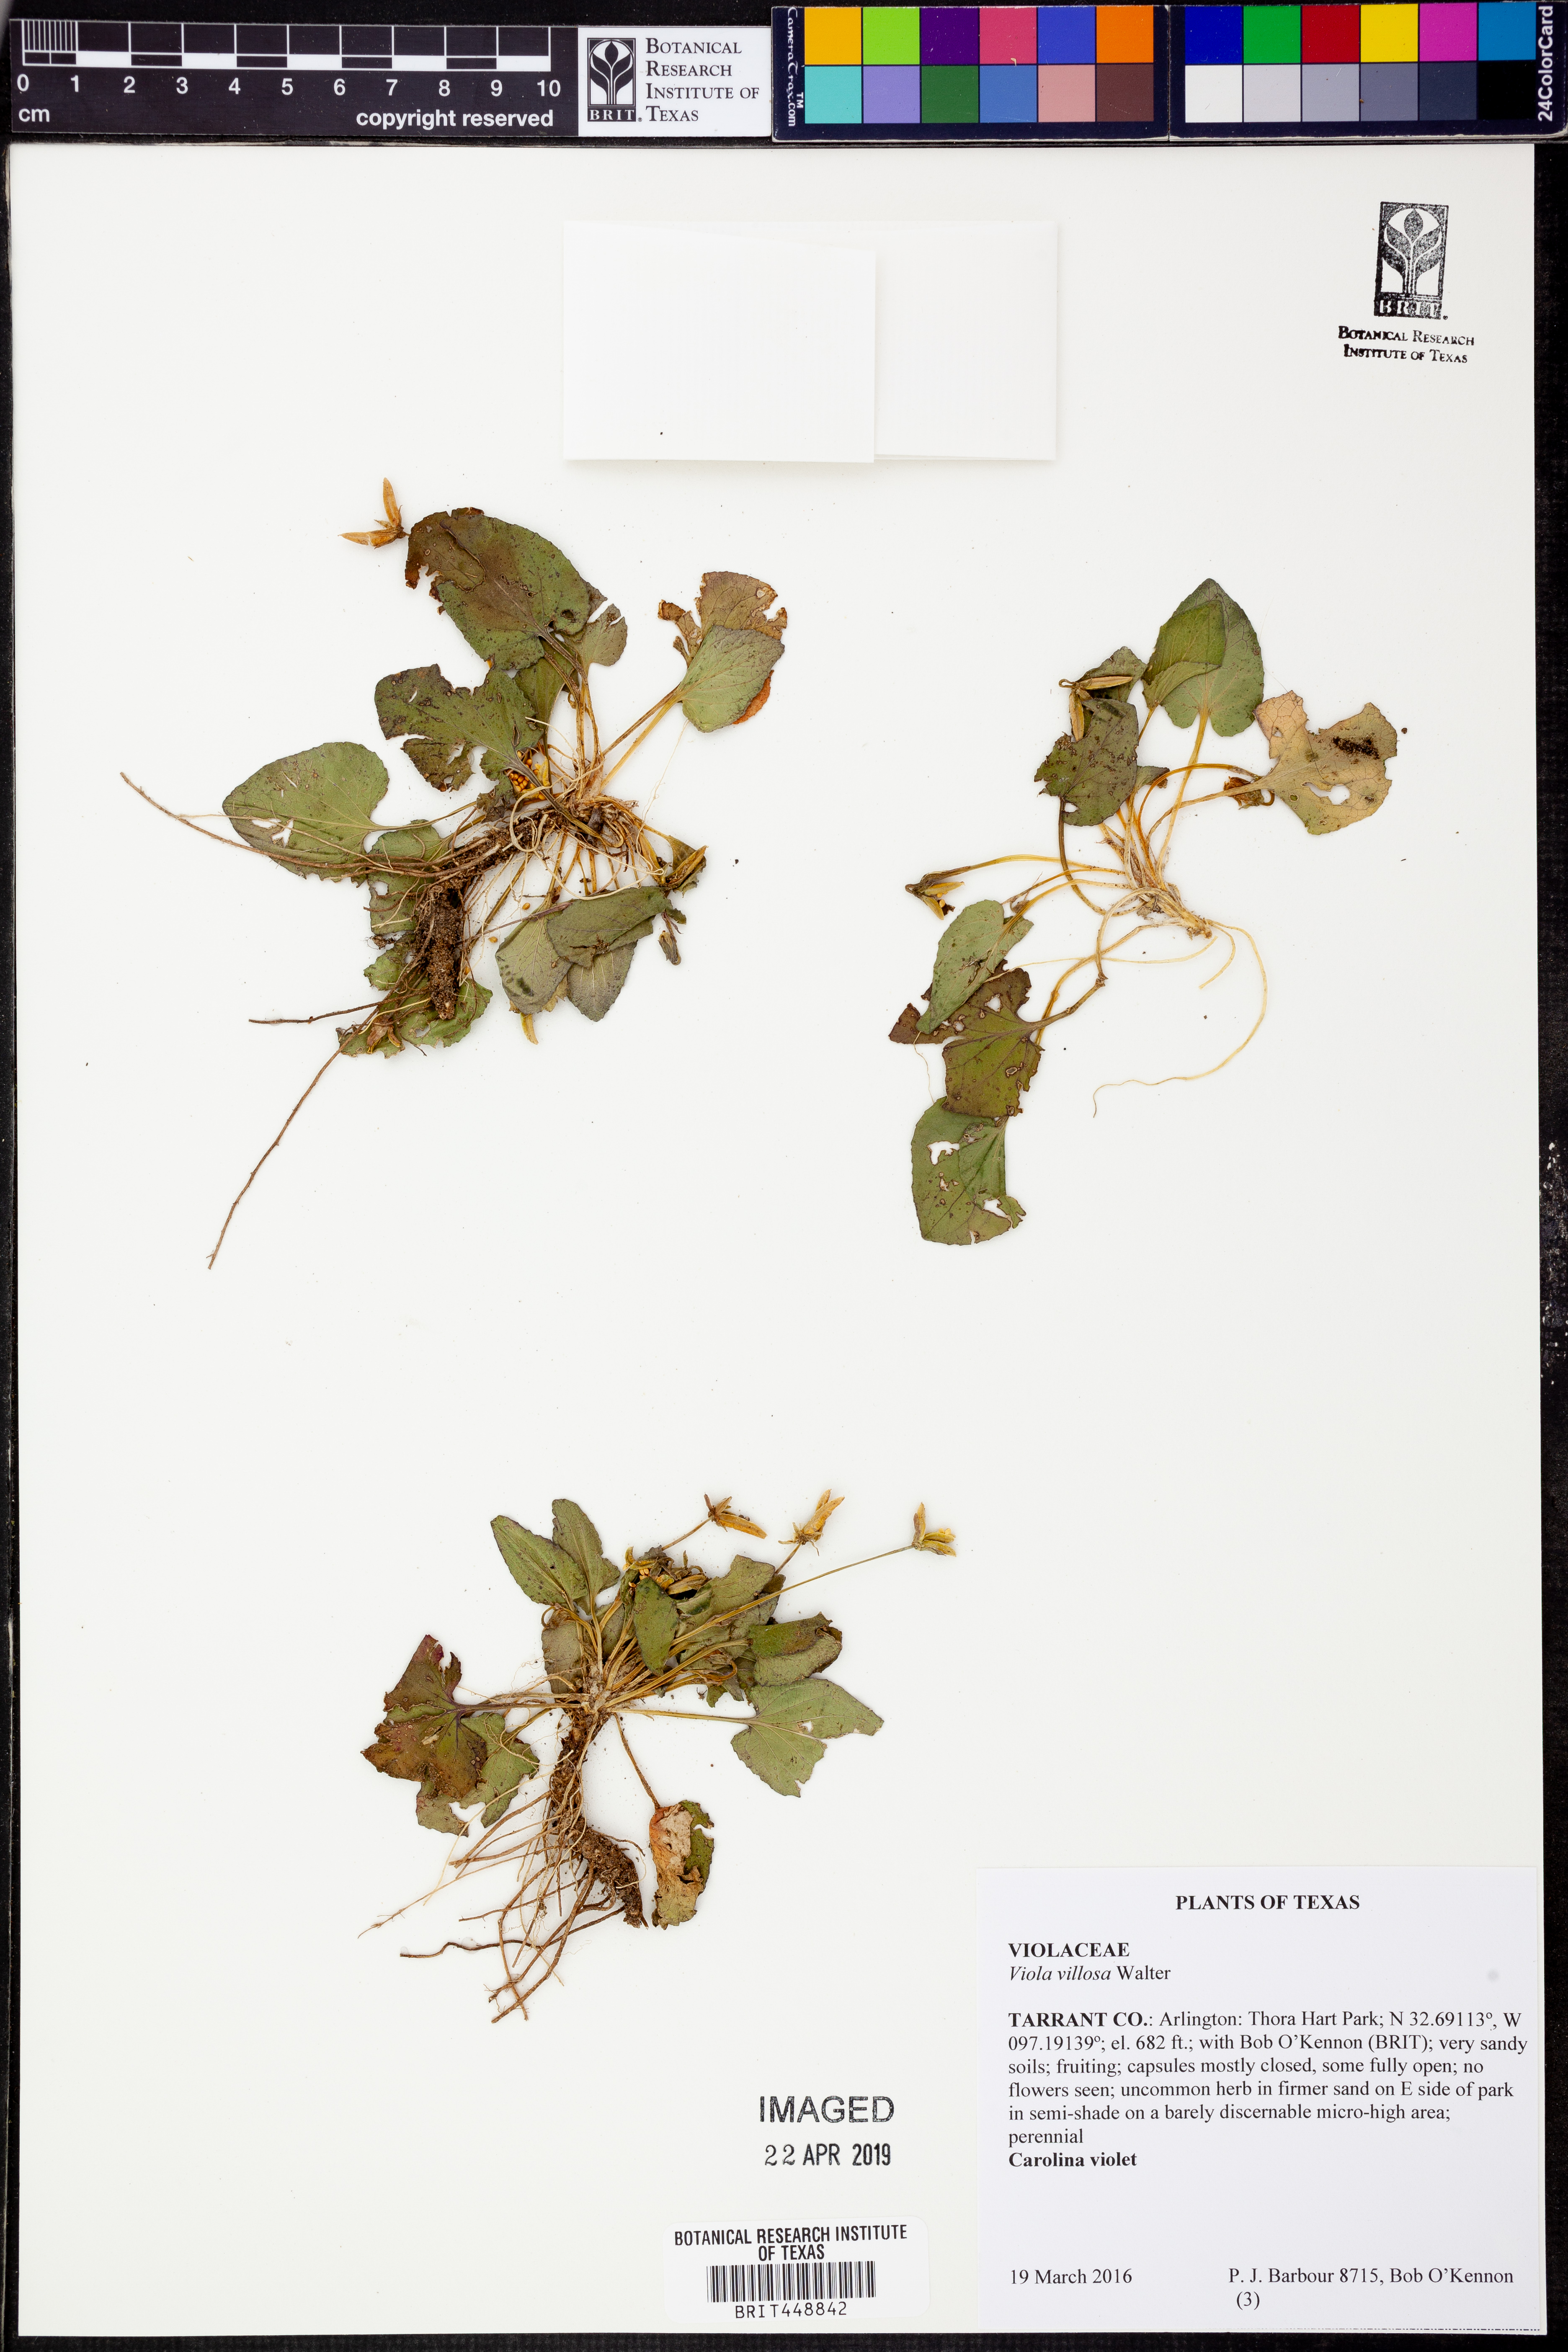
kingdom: Plantae
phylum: Tracheophyta
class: Magnoliopsida
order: Malpighiales
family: Violaceae
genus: Viola
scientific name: Viola villosa
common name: Carolina violet
